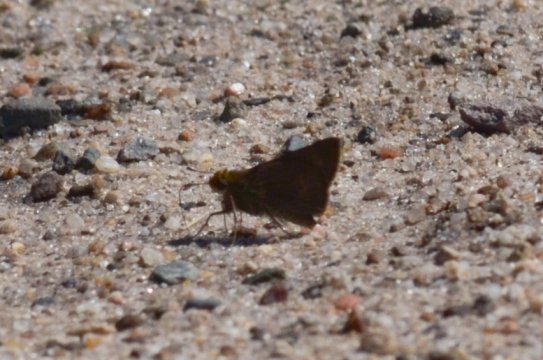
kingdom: Animalia
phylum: Arthropoda
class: Insecta
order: Lepidoptera
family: Hesperiidae
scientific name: Hesperiidae
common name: Skippers
